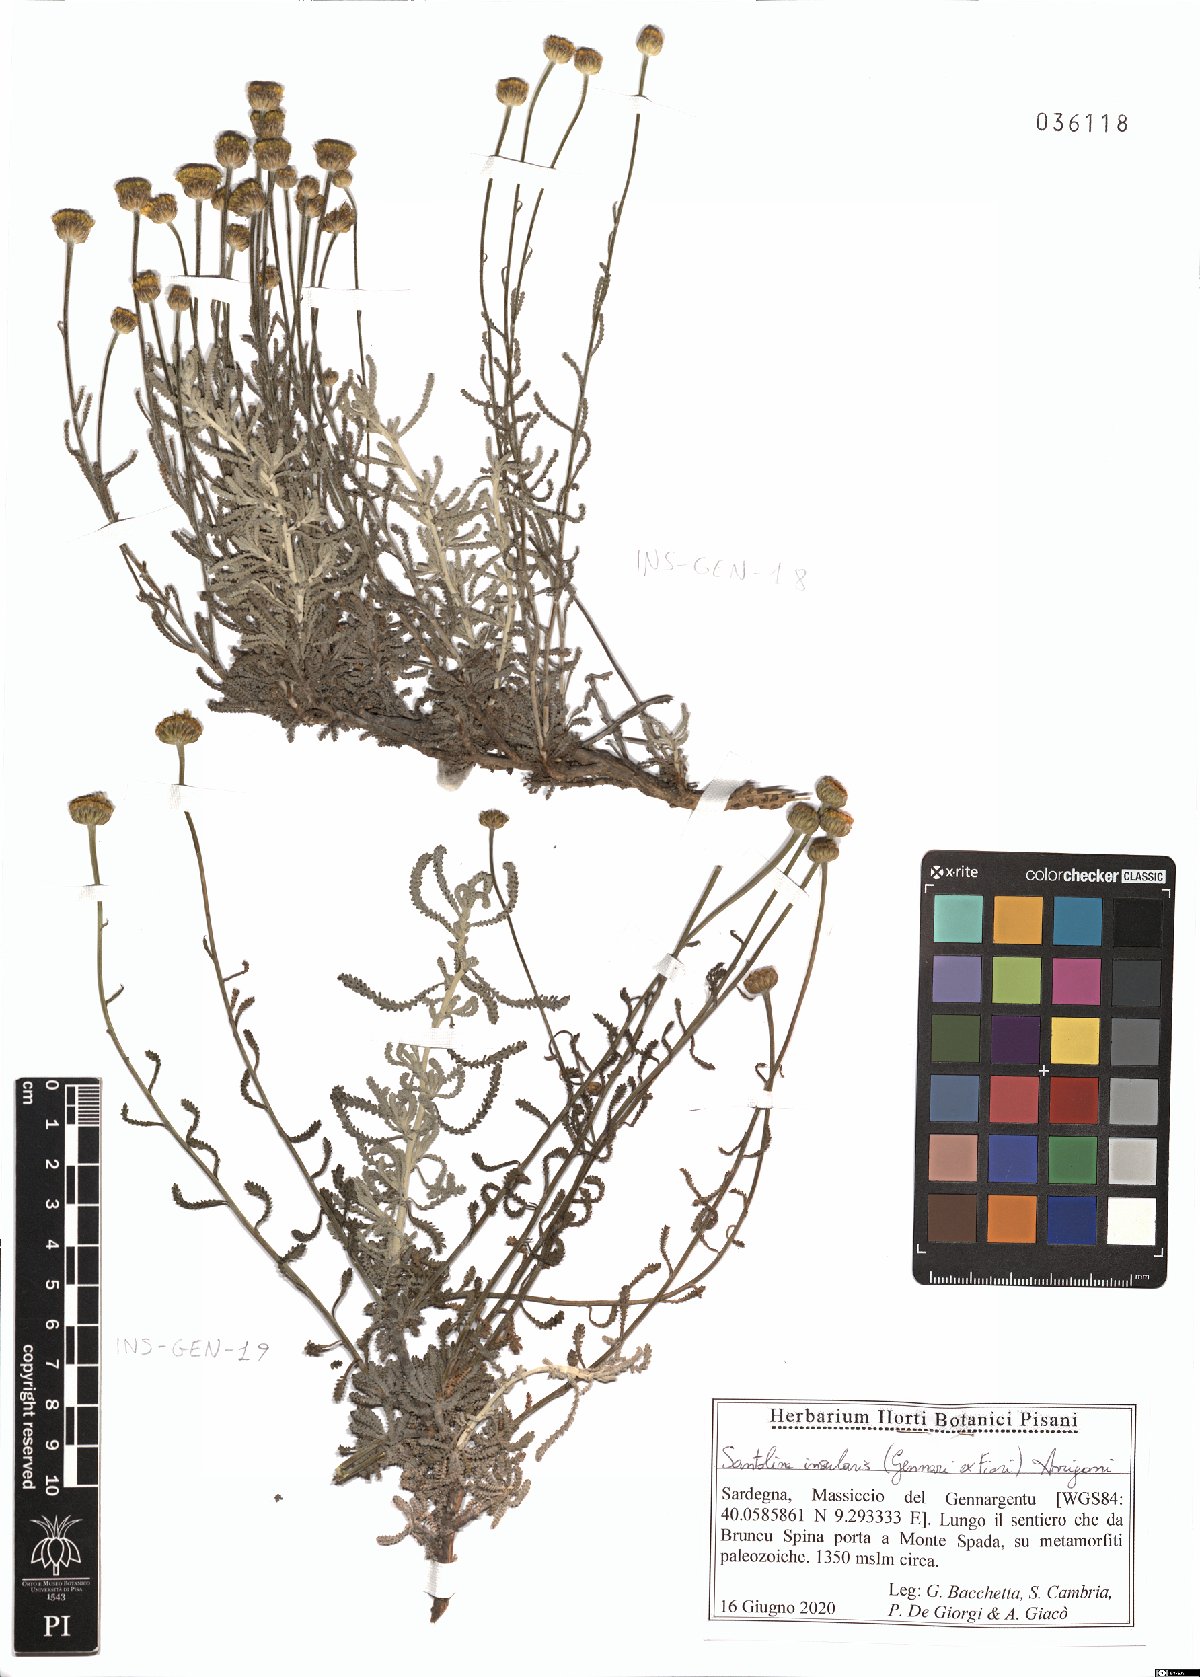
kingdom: Plantae
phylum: Tracheophyta
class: Magnoliopsida
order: Asterales
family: Asteraceae
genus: Santolina
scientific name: Santolina insularis
